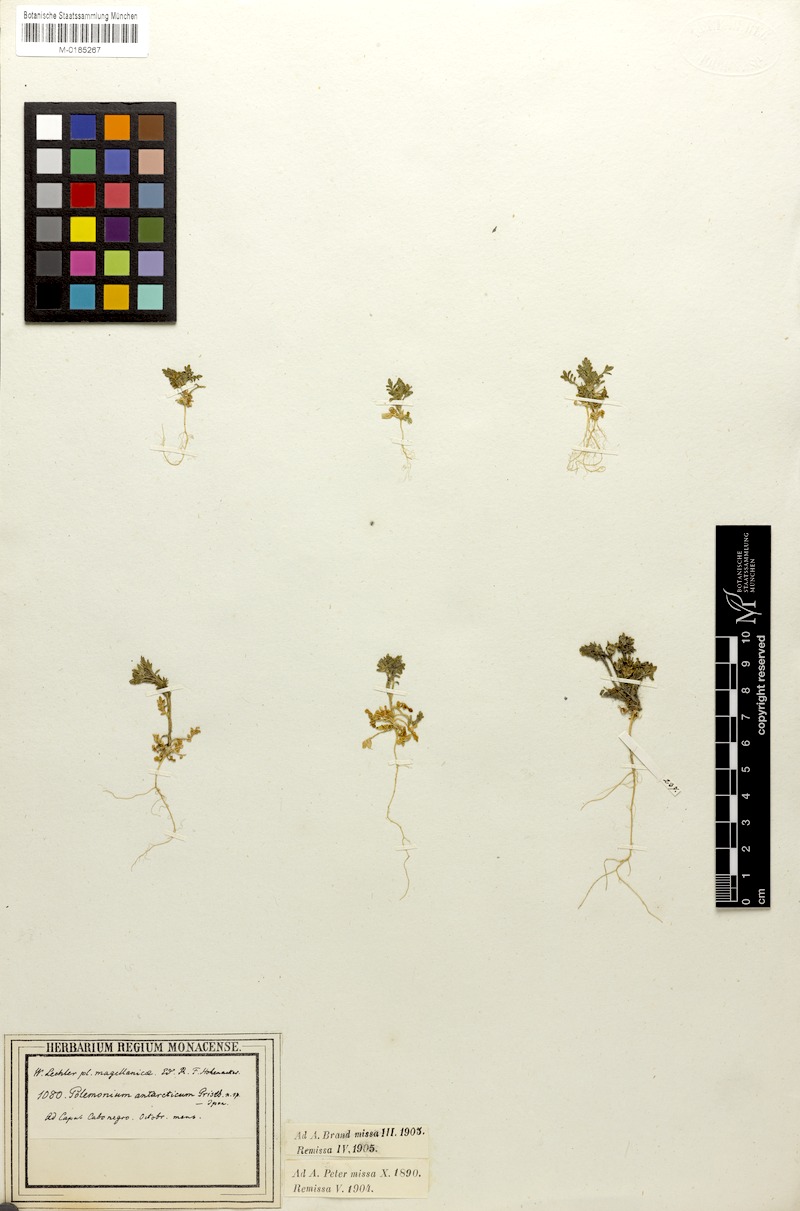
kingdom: Plantae
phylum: Tracheophyta
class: Magnoliopsida
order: Ericales
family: Polemoniaceae
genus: Polemonium
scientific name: Polemonium micranthum
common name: Annual jacob's-ladder
